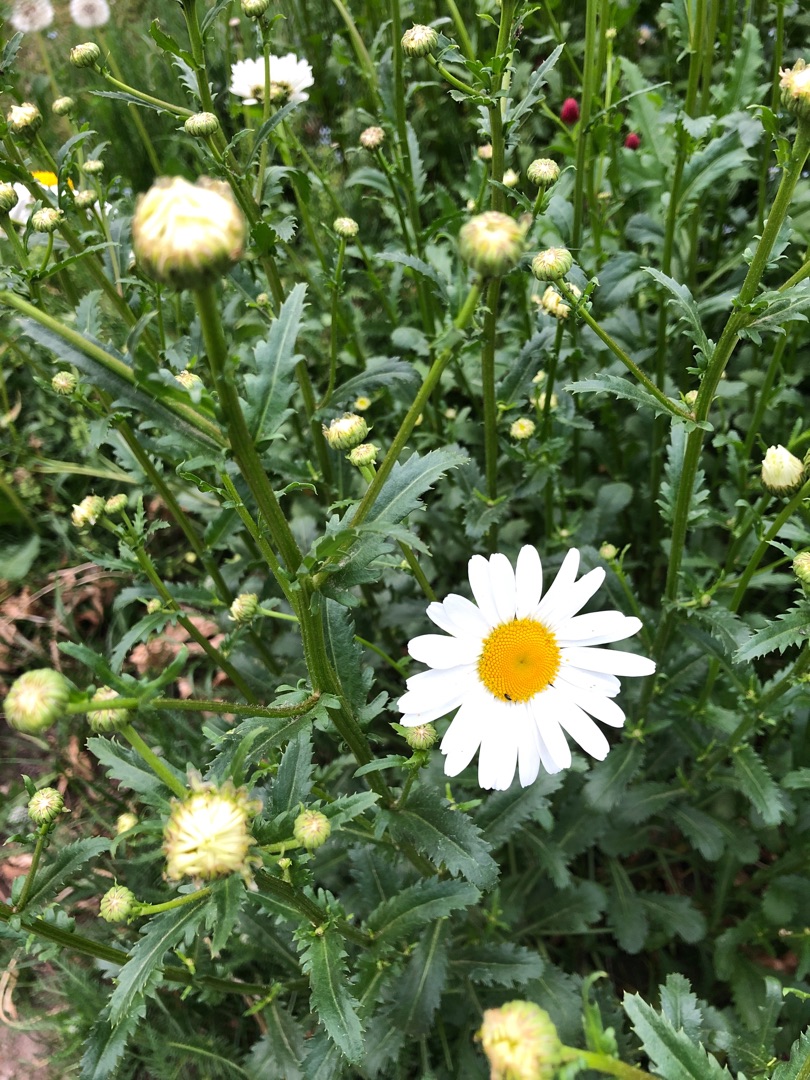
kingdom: Plantae
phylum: Tracheophyta
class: Magnoliopsida
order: Asterales
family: Asteraceae
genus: Leucanthemum
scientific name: Leucanthemum vulgare
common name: Hvid okseøje
